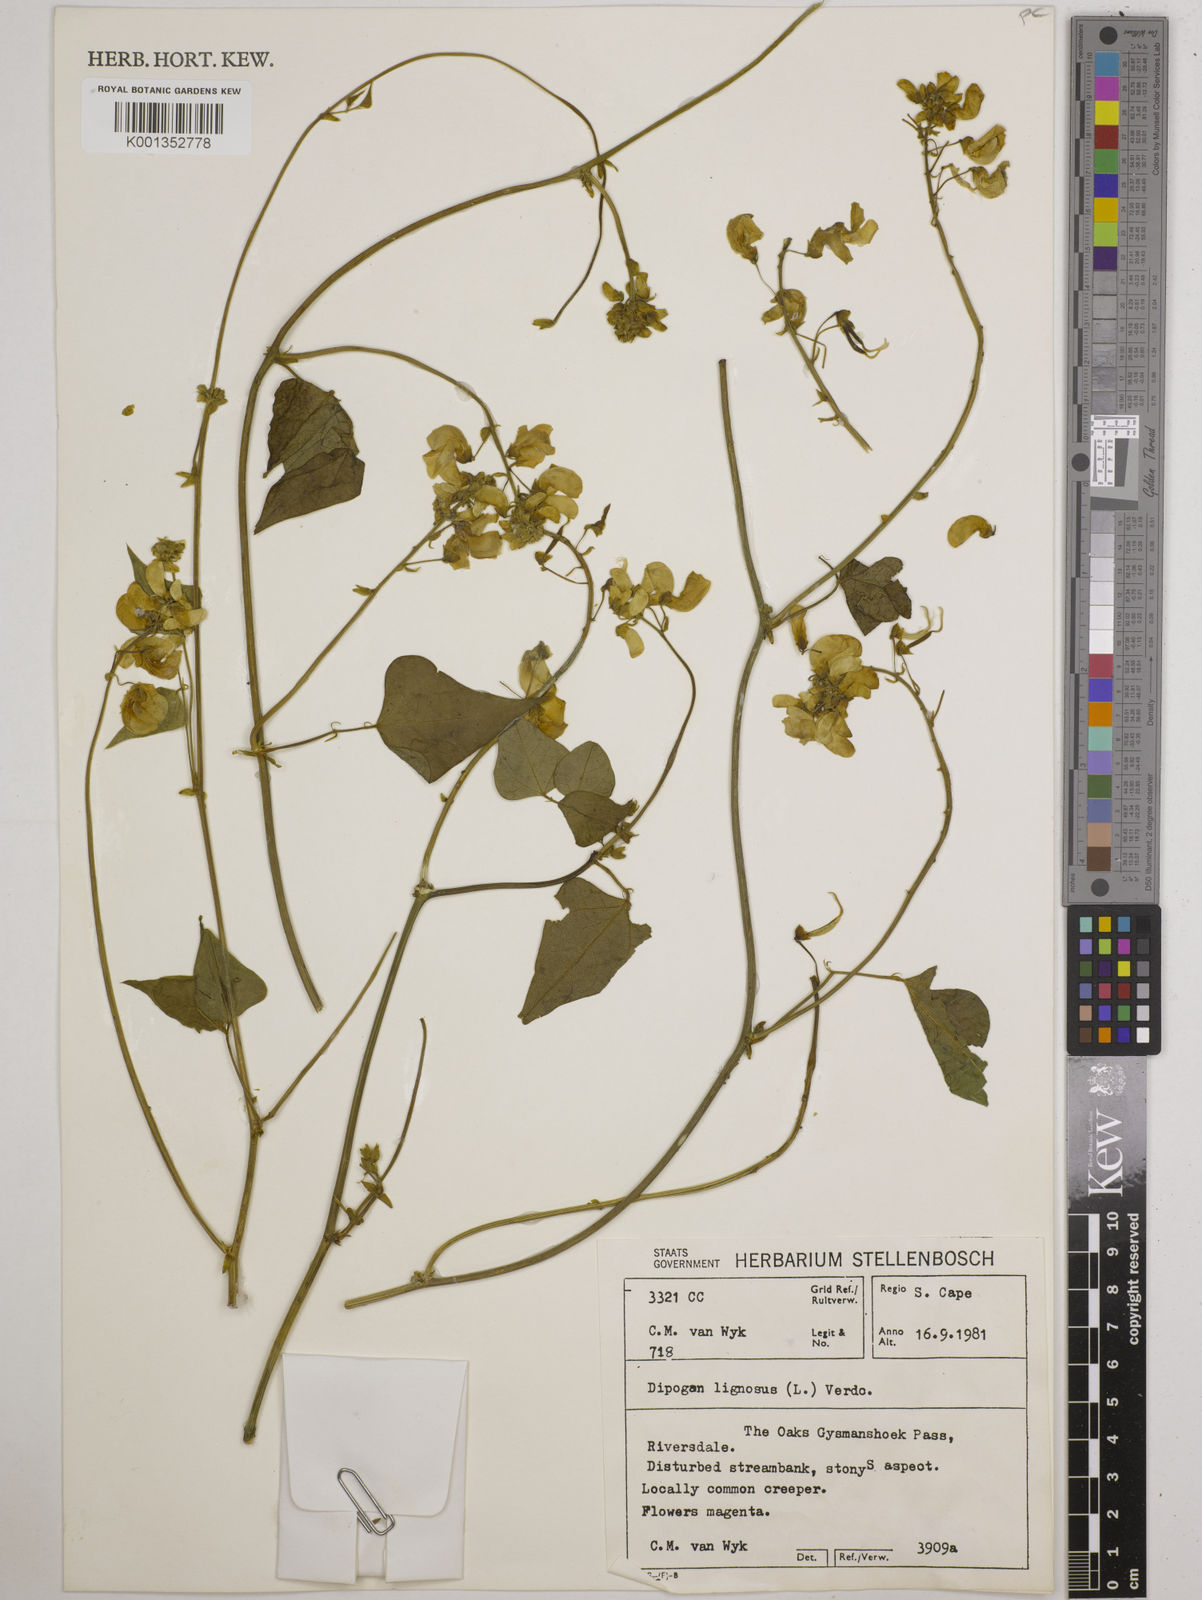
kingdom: Plantae
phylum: Tracheophyta
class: Magnoliopsida
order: Fabales
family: Fabaceae
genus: Dipogon
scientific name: Dipogon lignosus
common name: Okie bean
